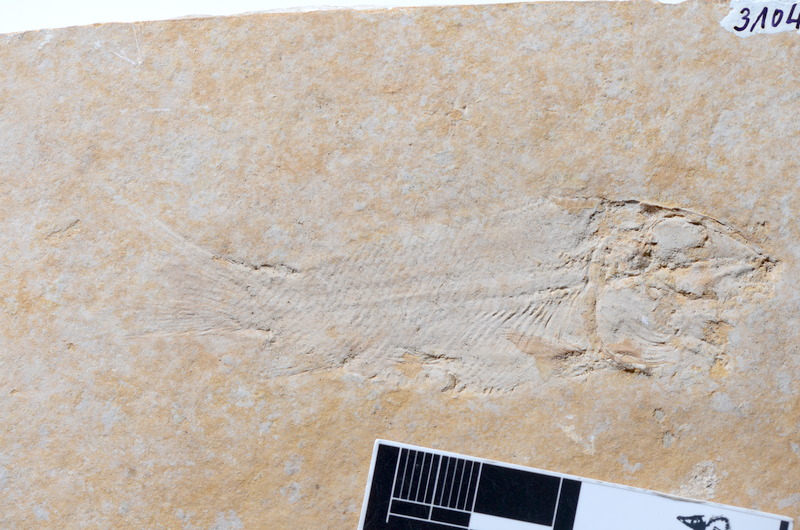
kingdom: Animalia
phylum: Chordata
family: Macrosemiidae
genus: Propterus
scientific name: Propterus microstomus
